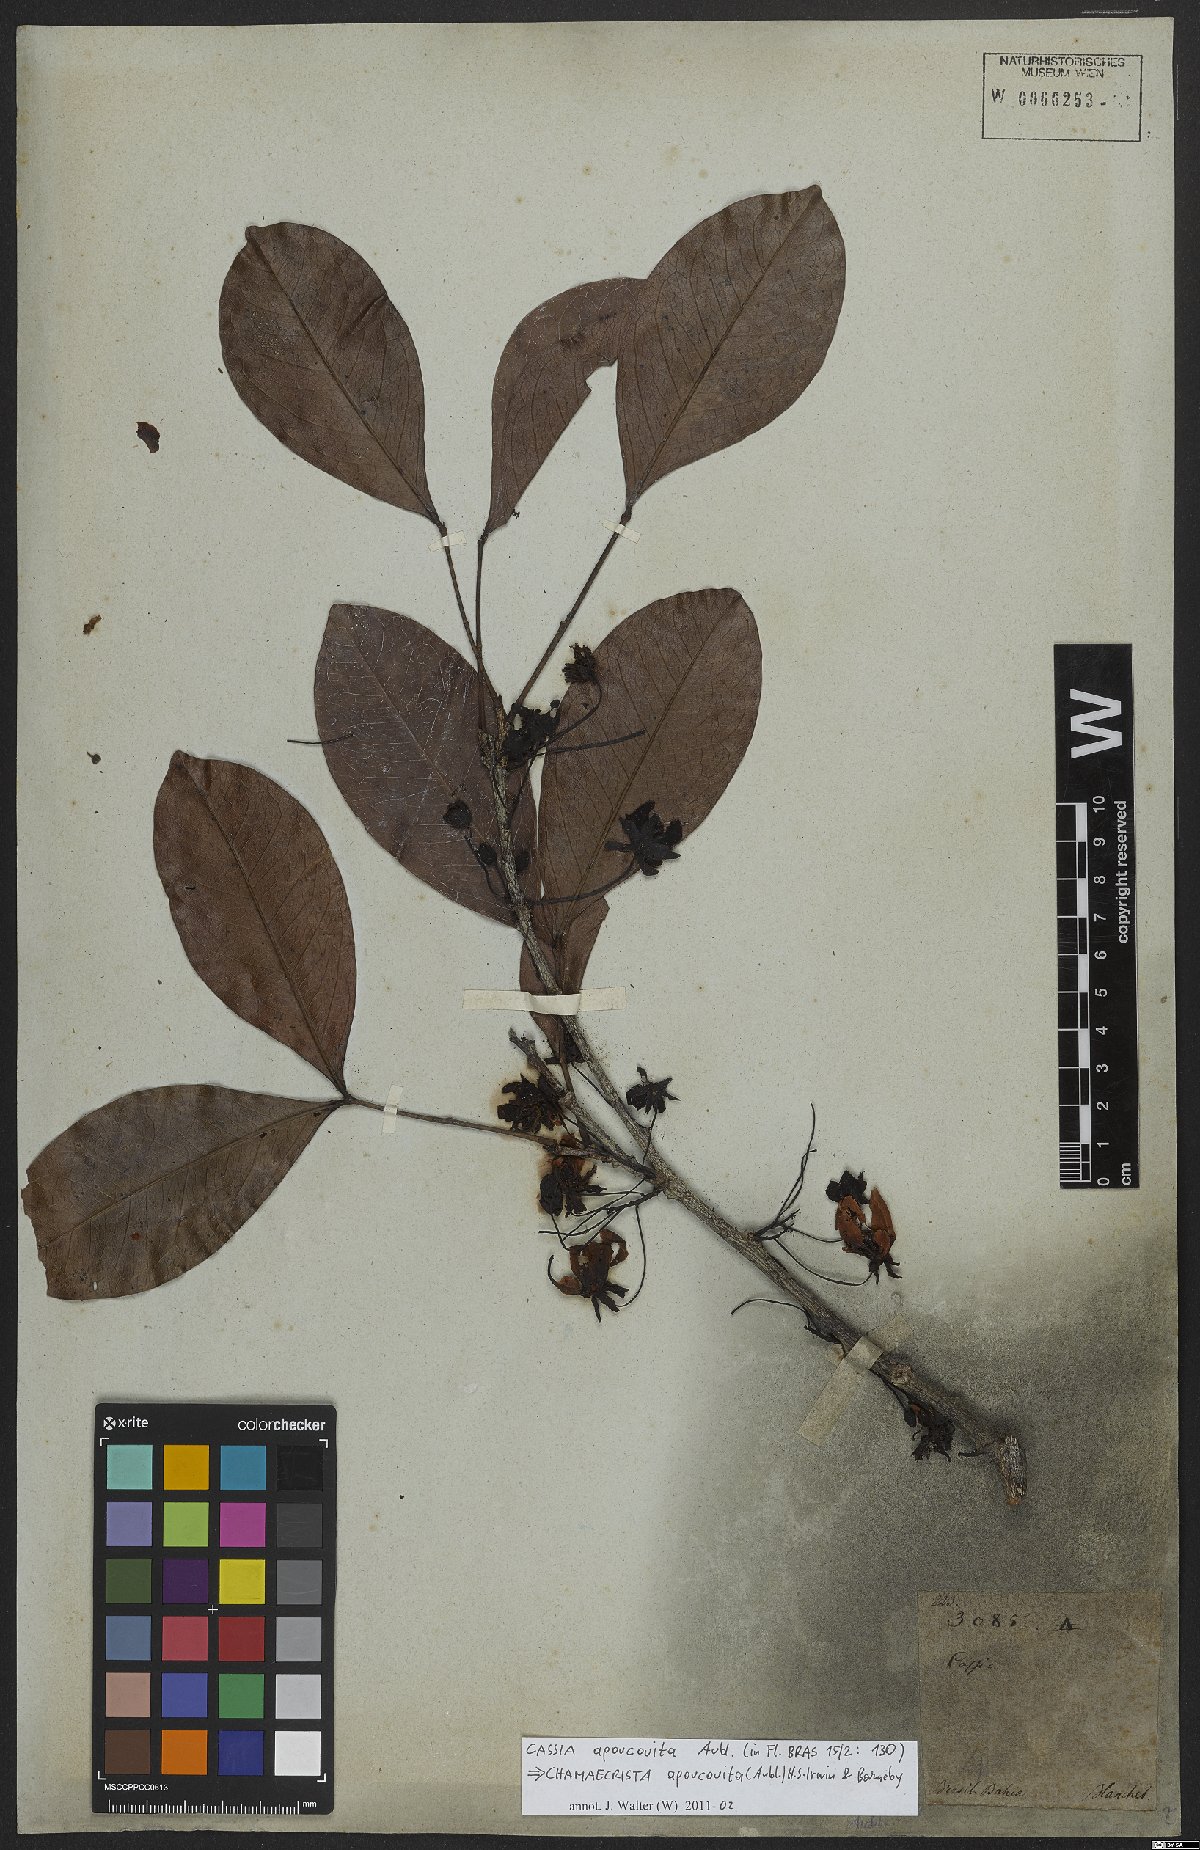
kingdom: Plantae
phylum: Tracheophyta
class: Magnoliopsida
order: Fabales
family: Fabaceae
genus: Chamaecrista
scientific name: Chamaecrista apoucouita
